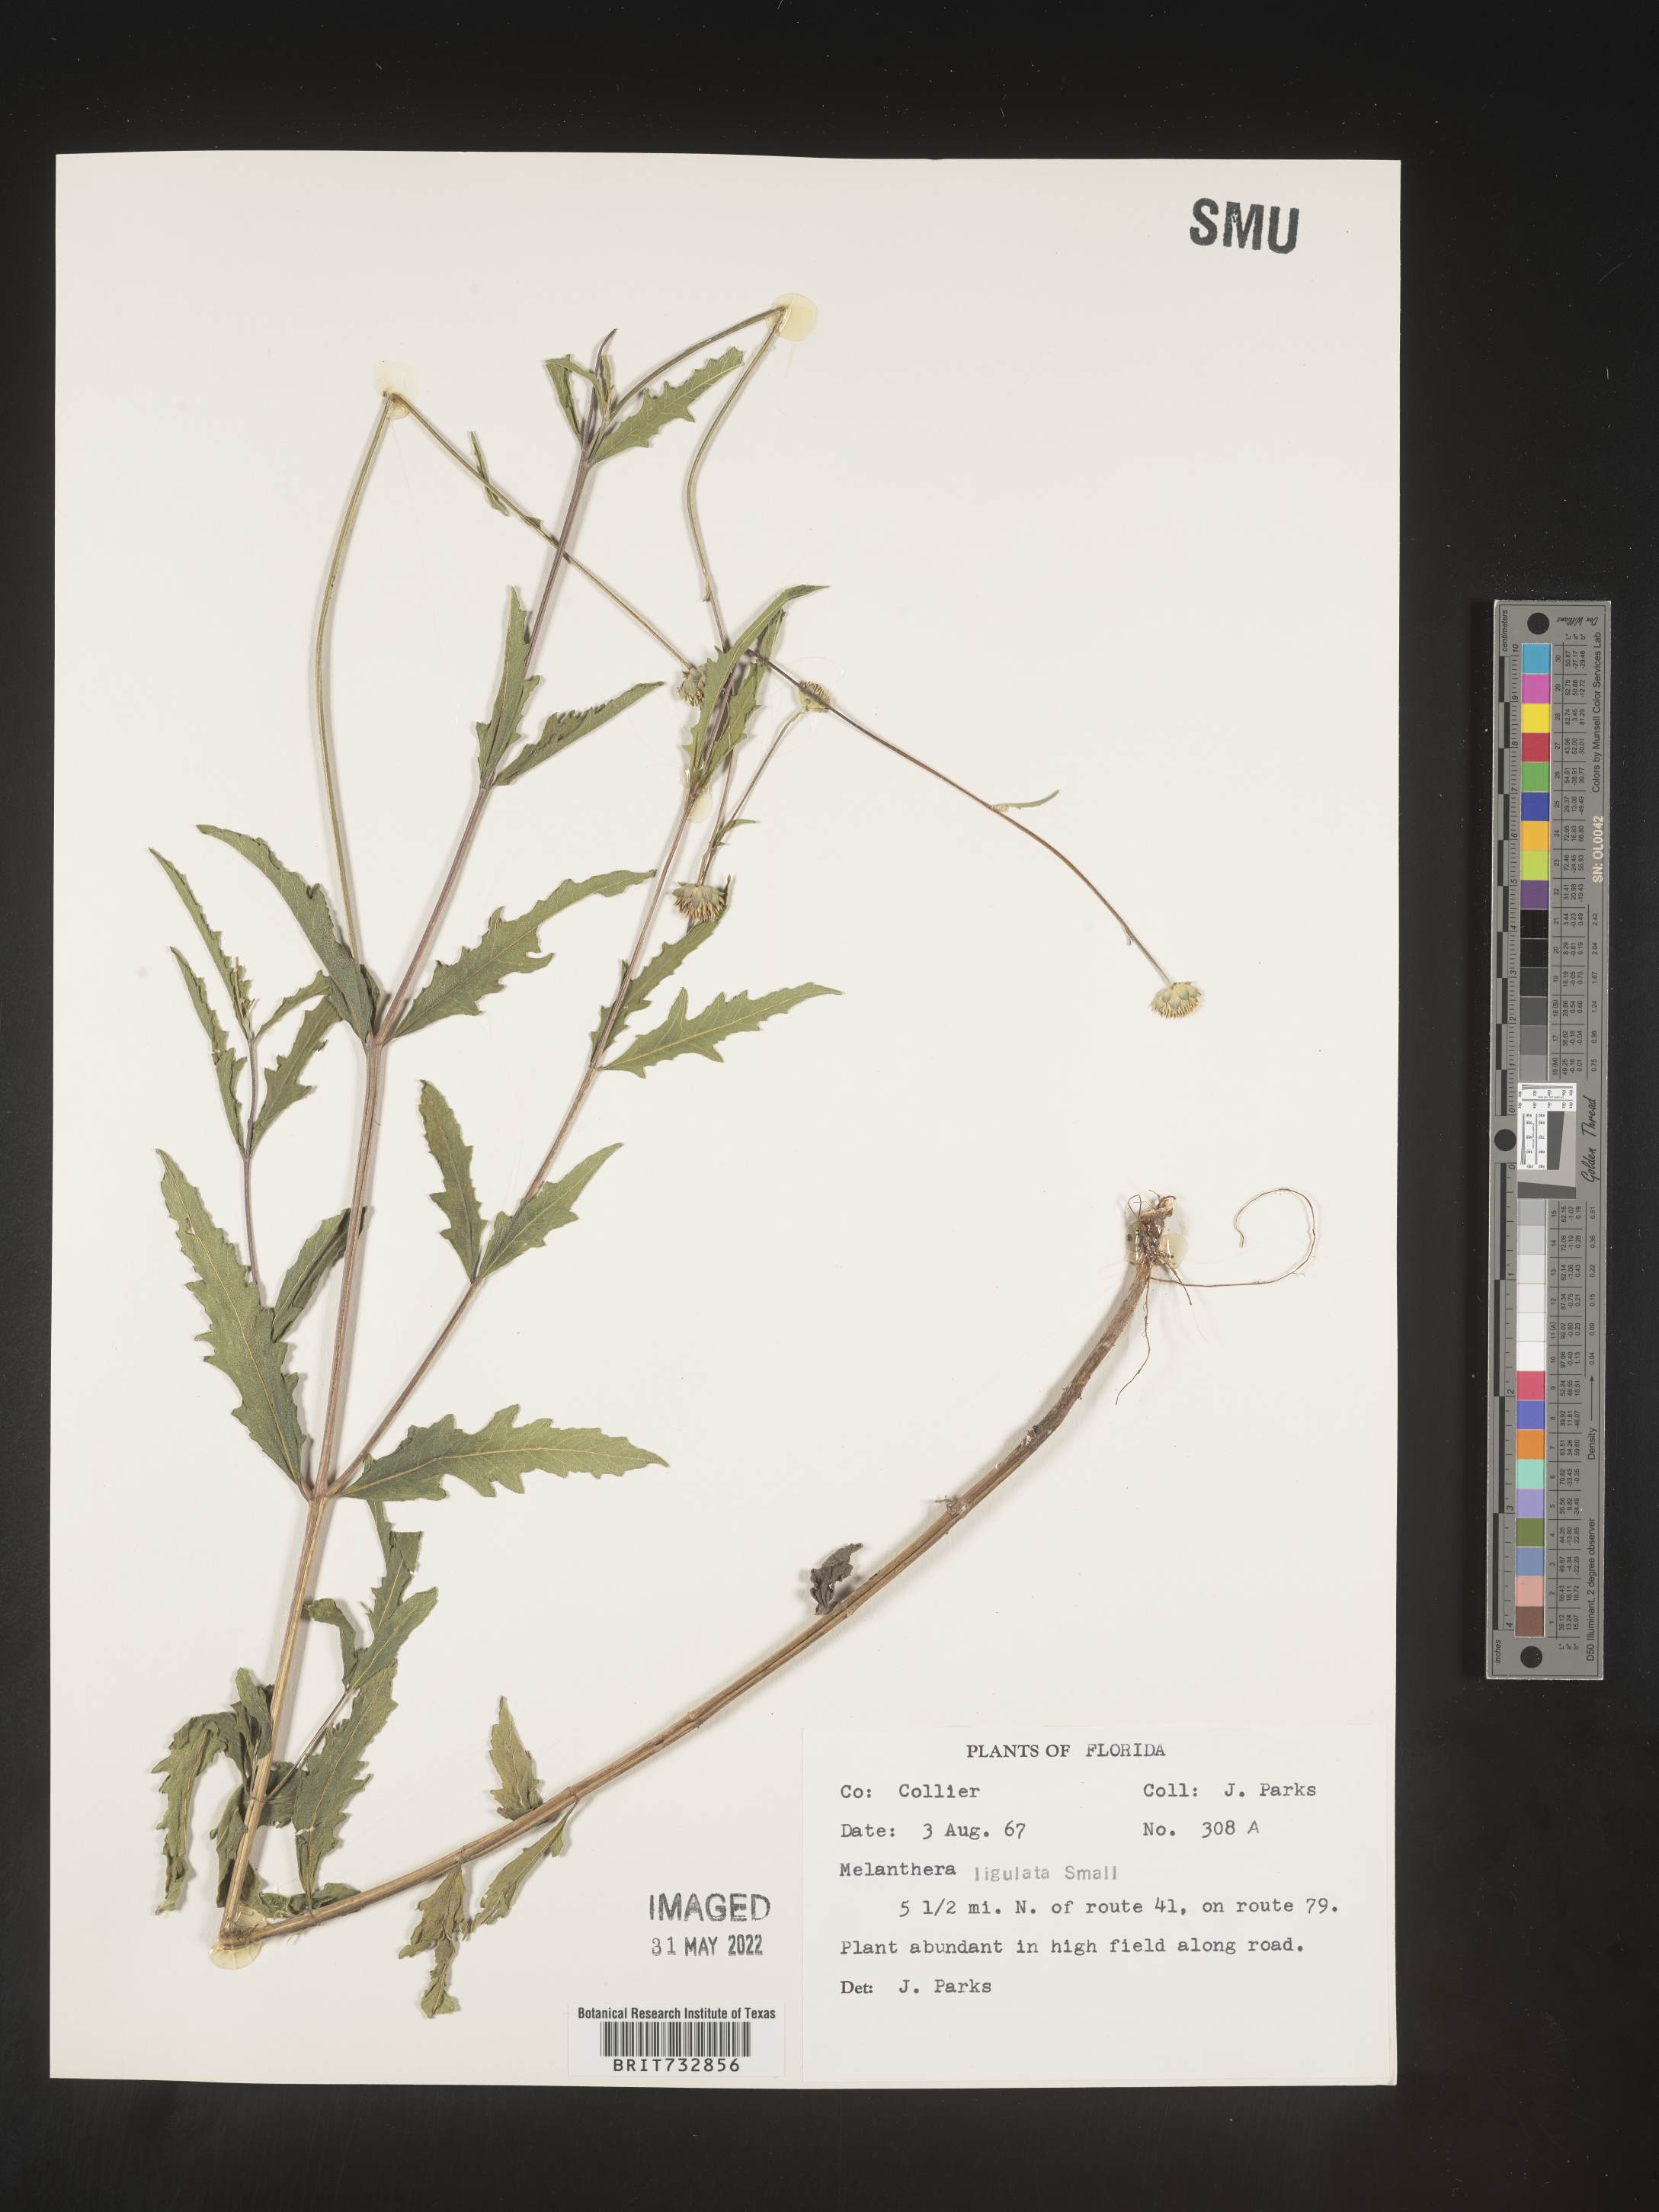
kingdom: Plantae
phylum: Tracheophyta
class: Magnoliopsida
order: Asterales
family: Asteraceae
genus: Melanthera
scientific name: Melanthera nivea
